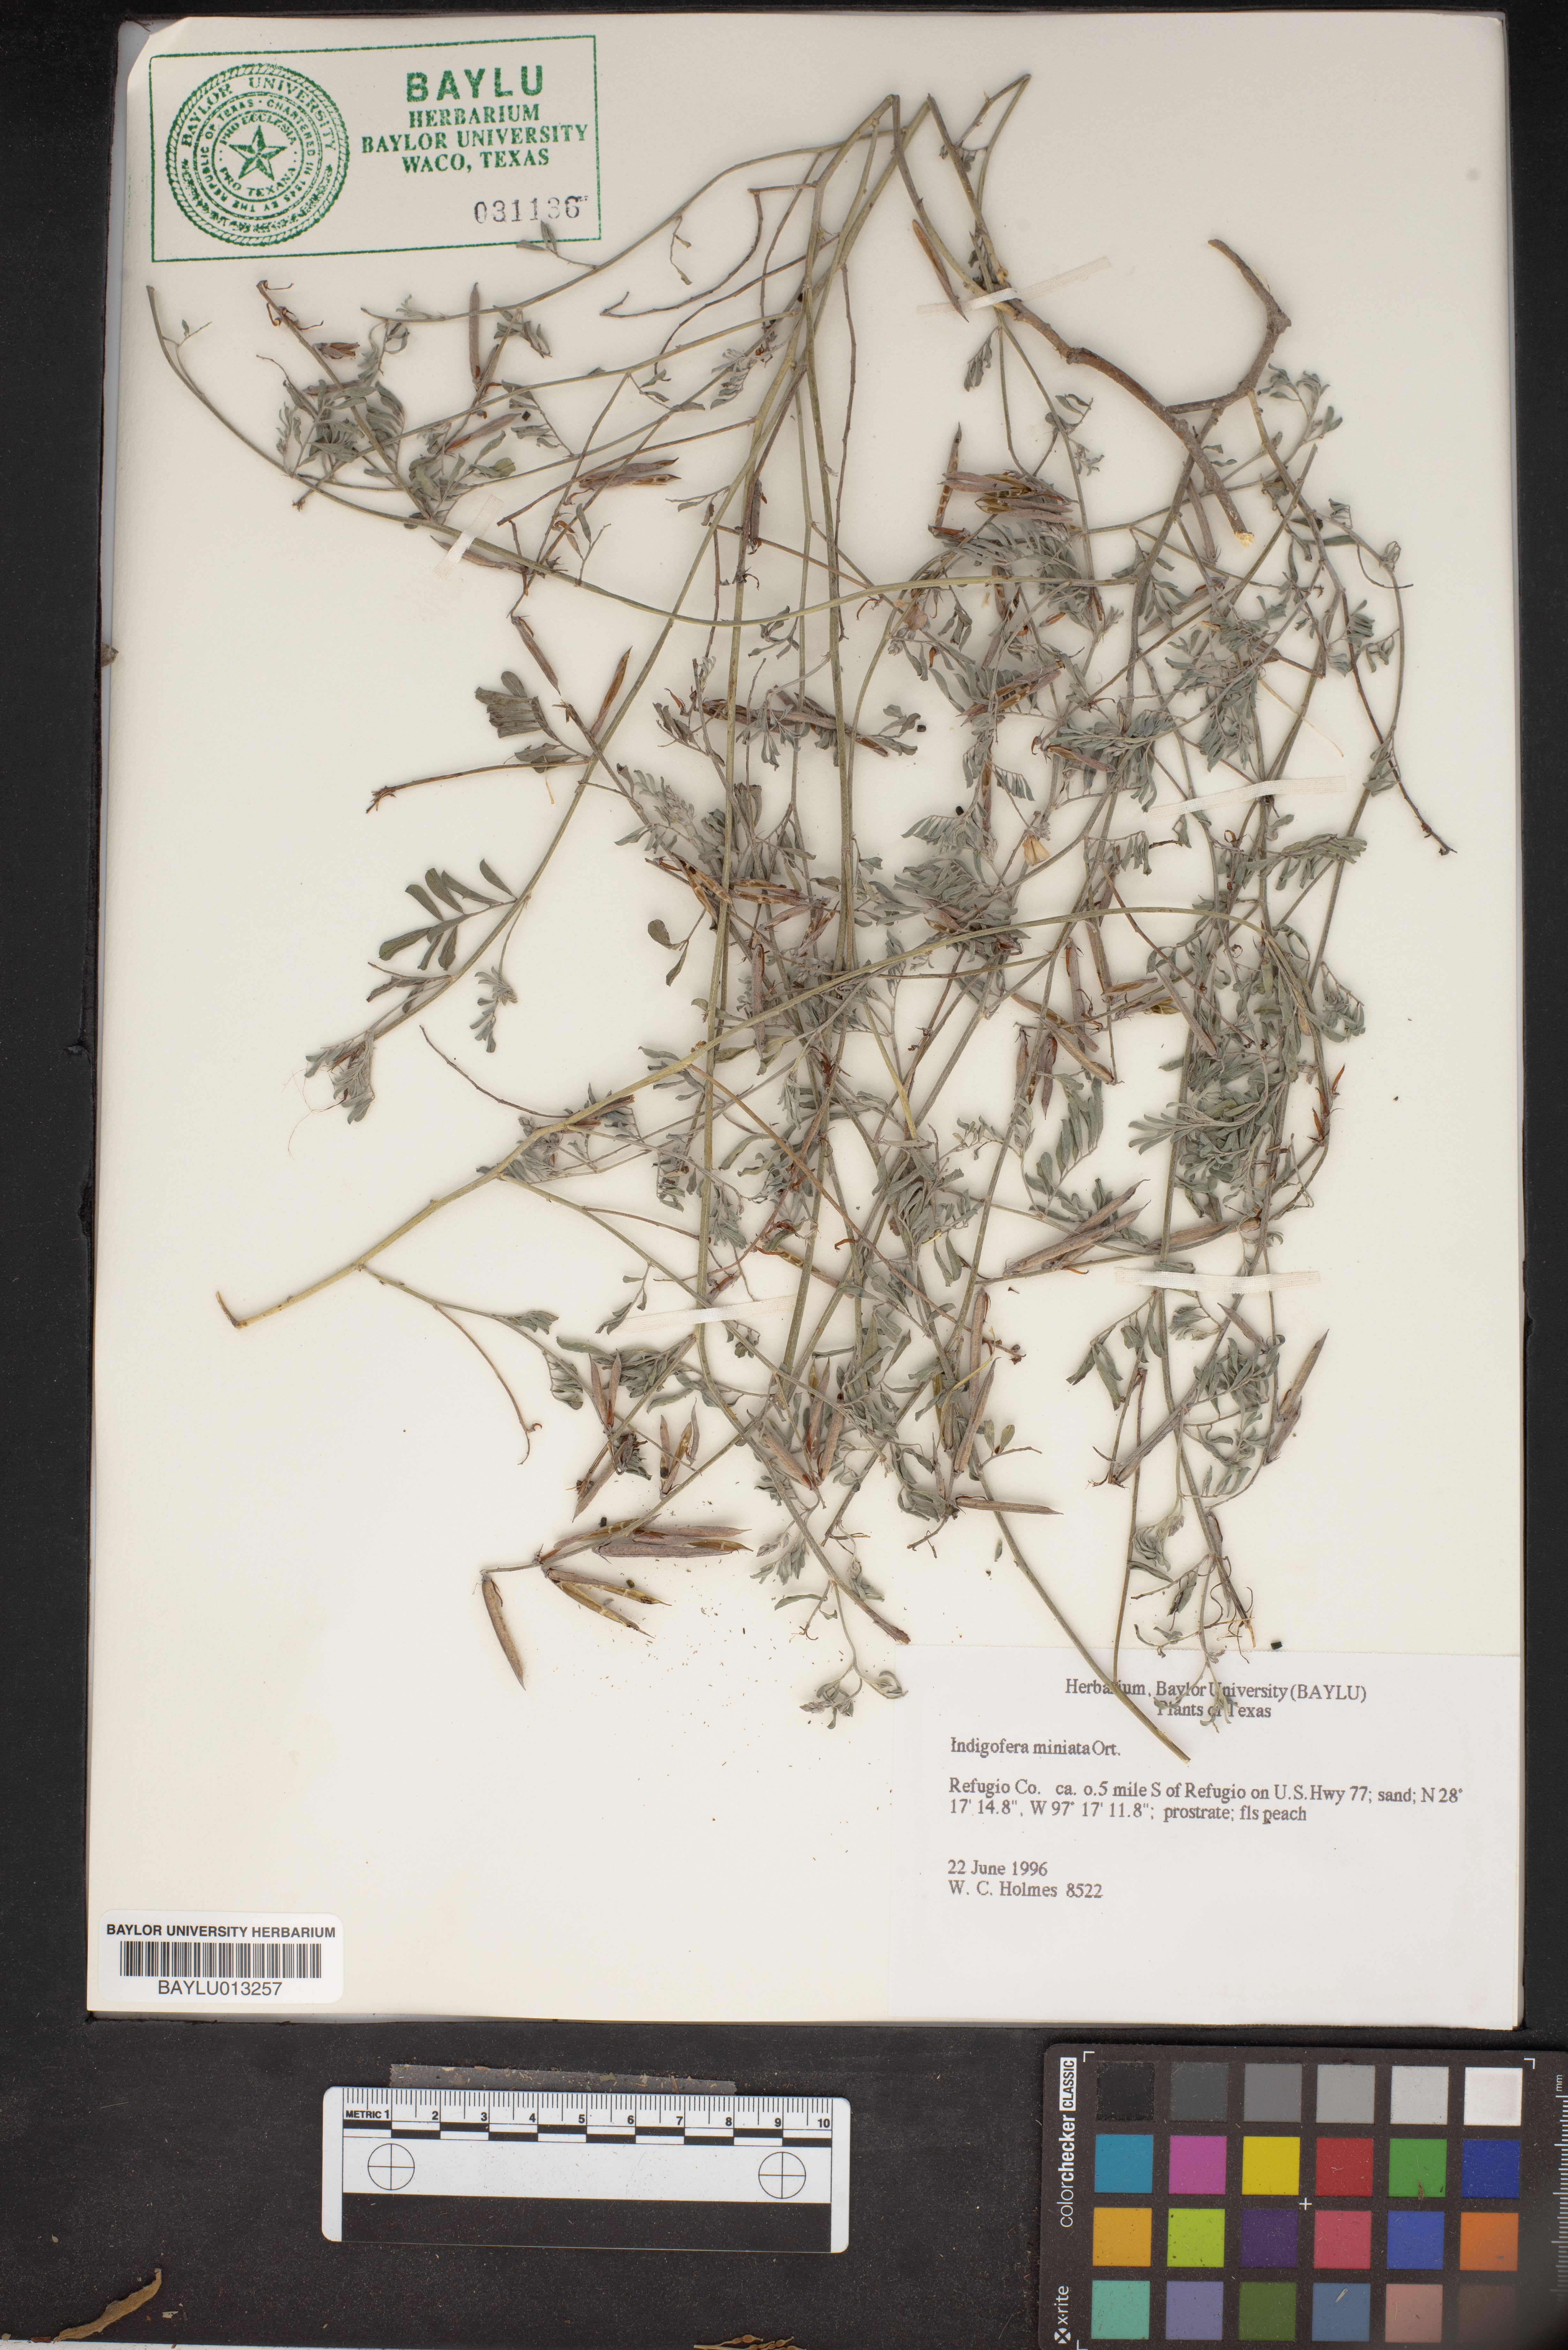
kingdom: Plantae
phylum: Tracheophyta
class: Magnoliopsida
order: Fabales
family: Fabaceae
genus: Indigofera
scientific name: Indigofera miniata
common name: Coast indigo
